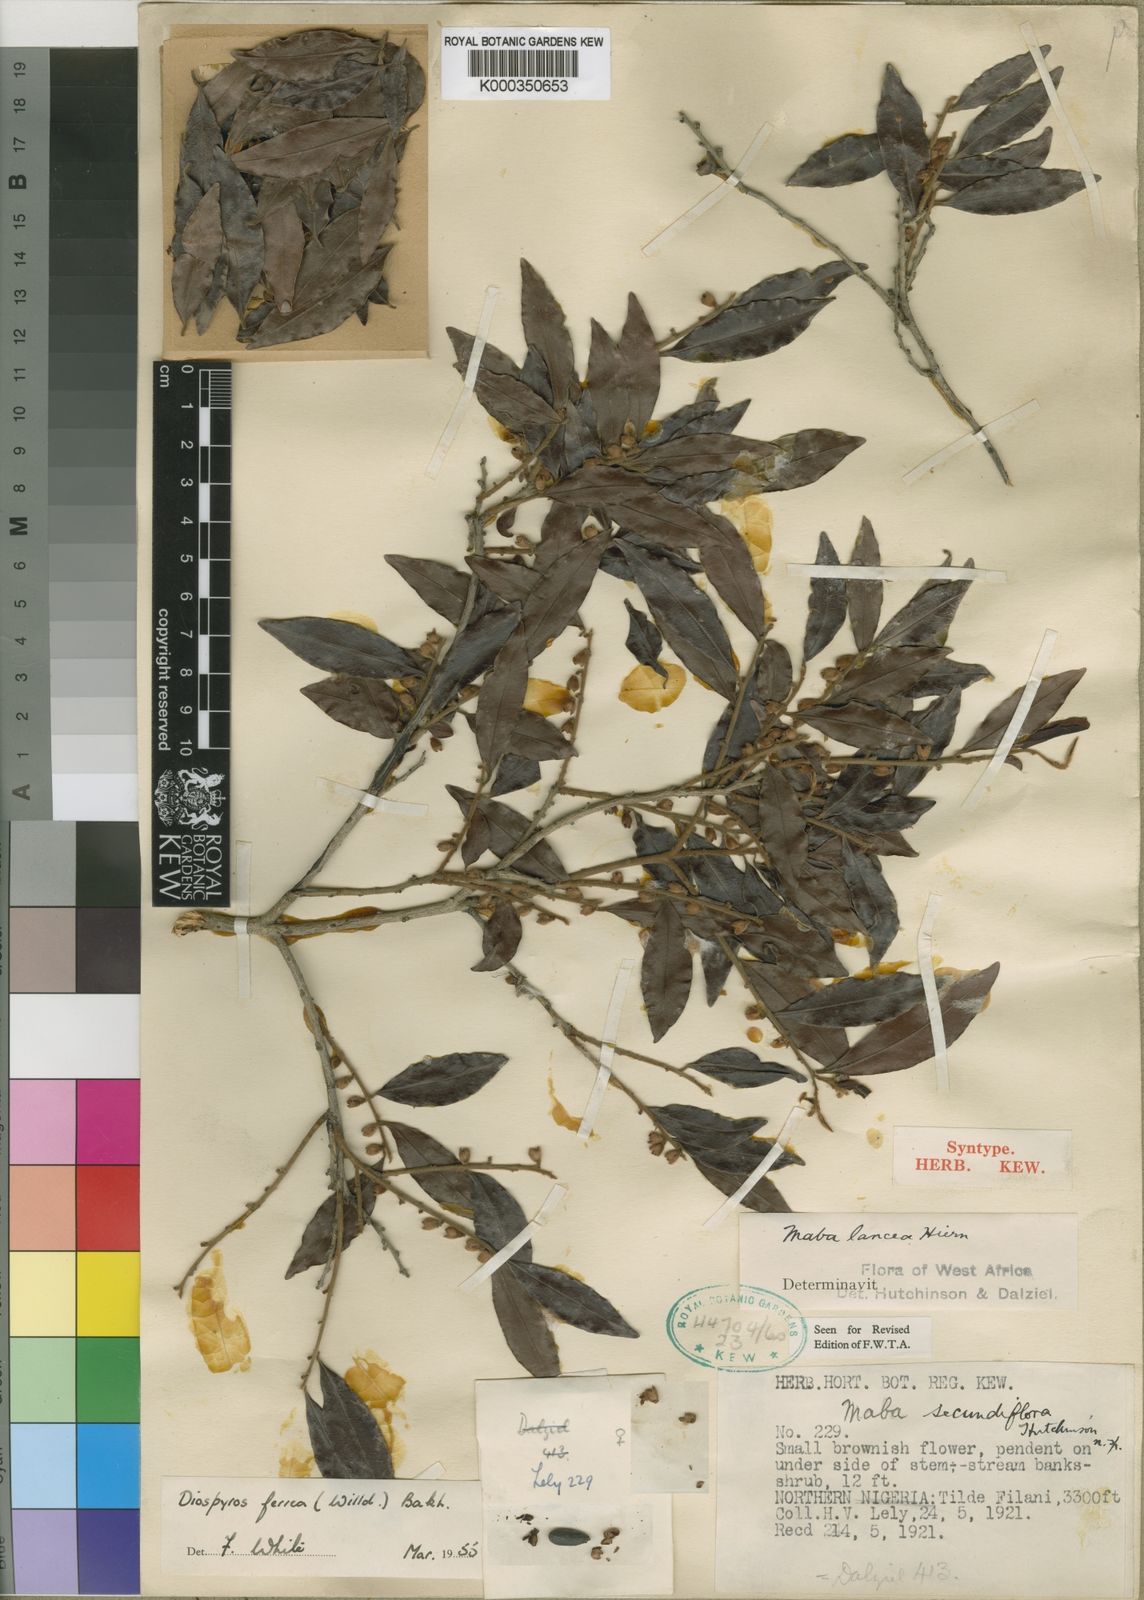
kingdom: Plantae
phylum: Tracheophyta
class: Magnoliopsida
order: Ericales
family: Ebenaceae
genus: Diospyros
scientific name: Diospyros ferrea
